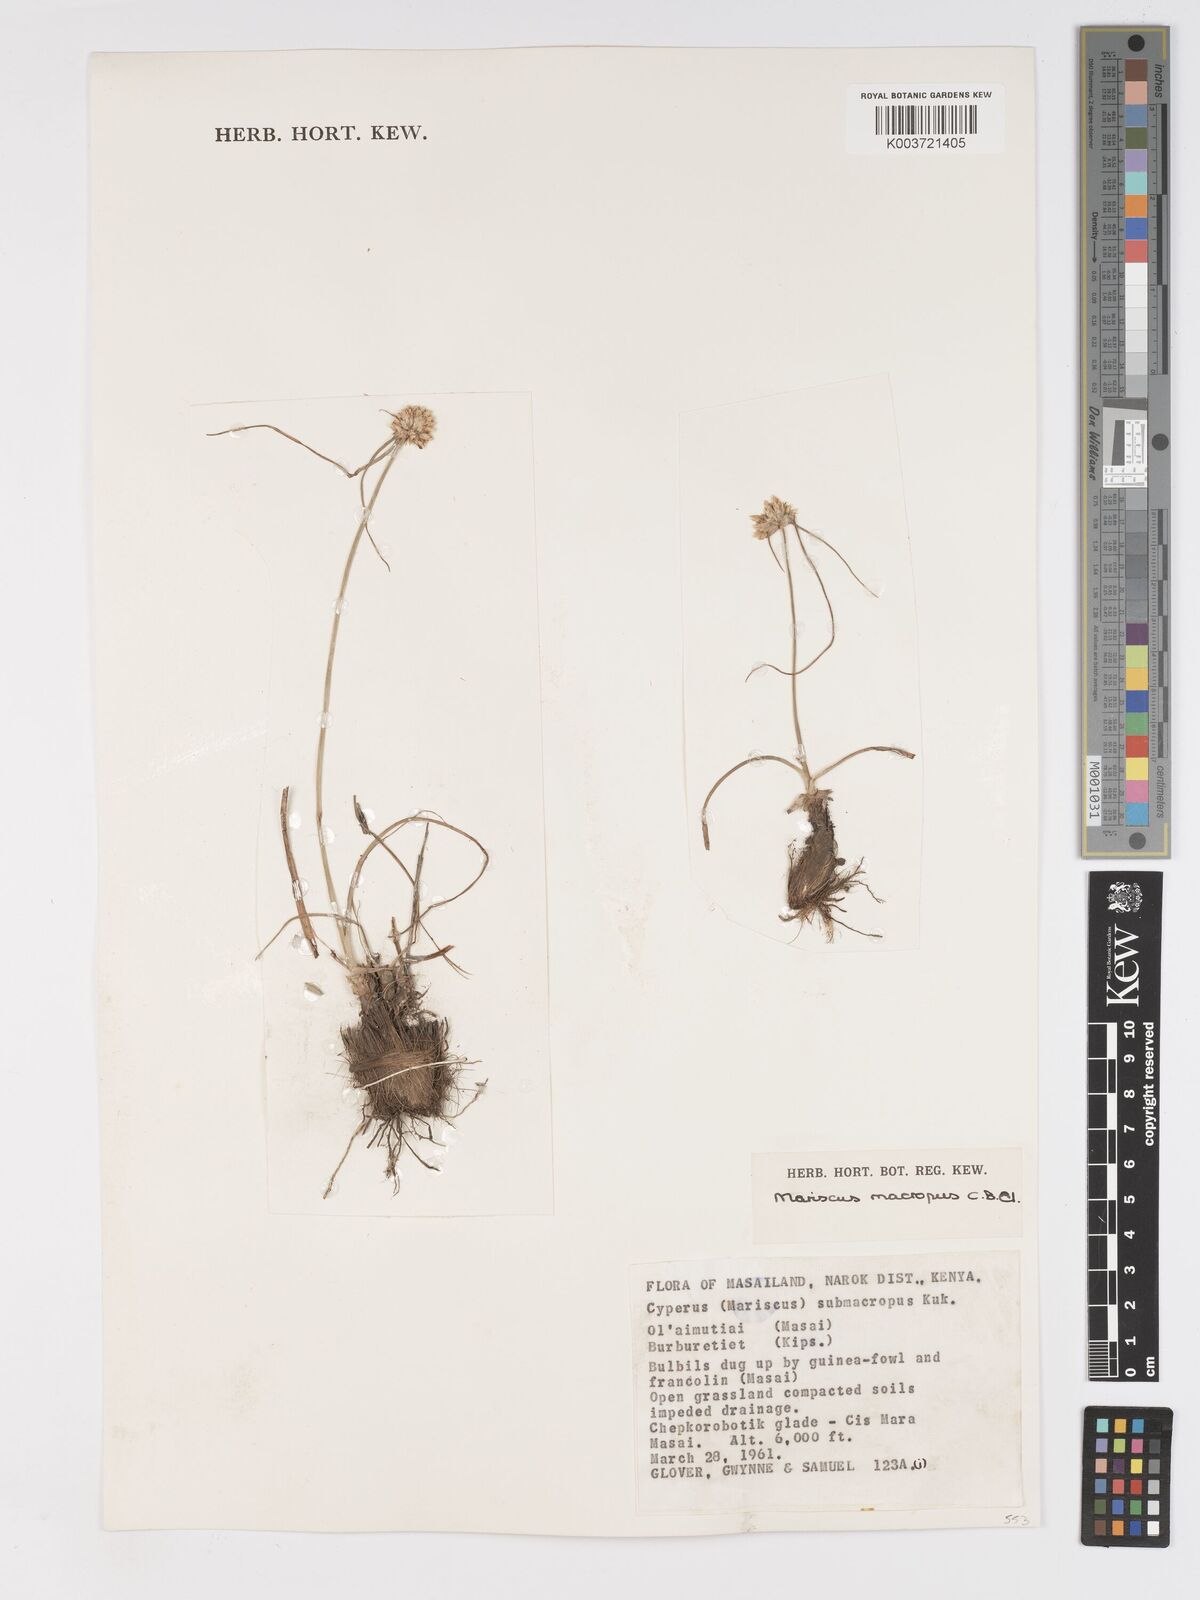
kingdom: Plantae
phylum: Tracheophyta
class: Liliopsida
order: Poales
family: Cyperaceae
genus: Cyperus
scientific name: Cyperus mollipes
